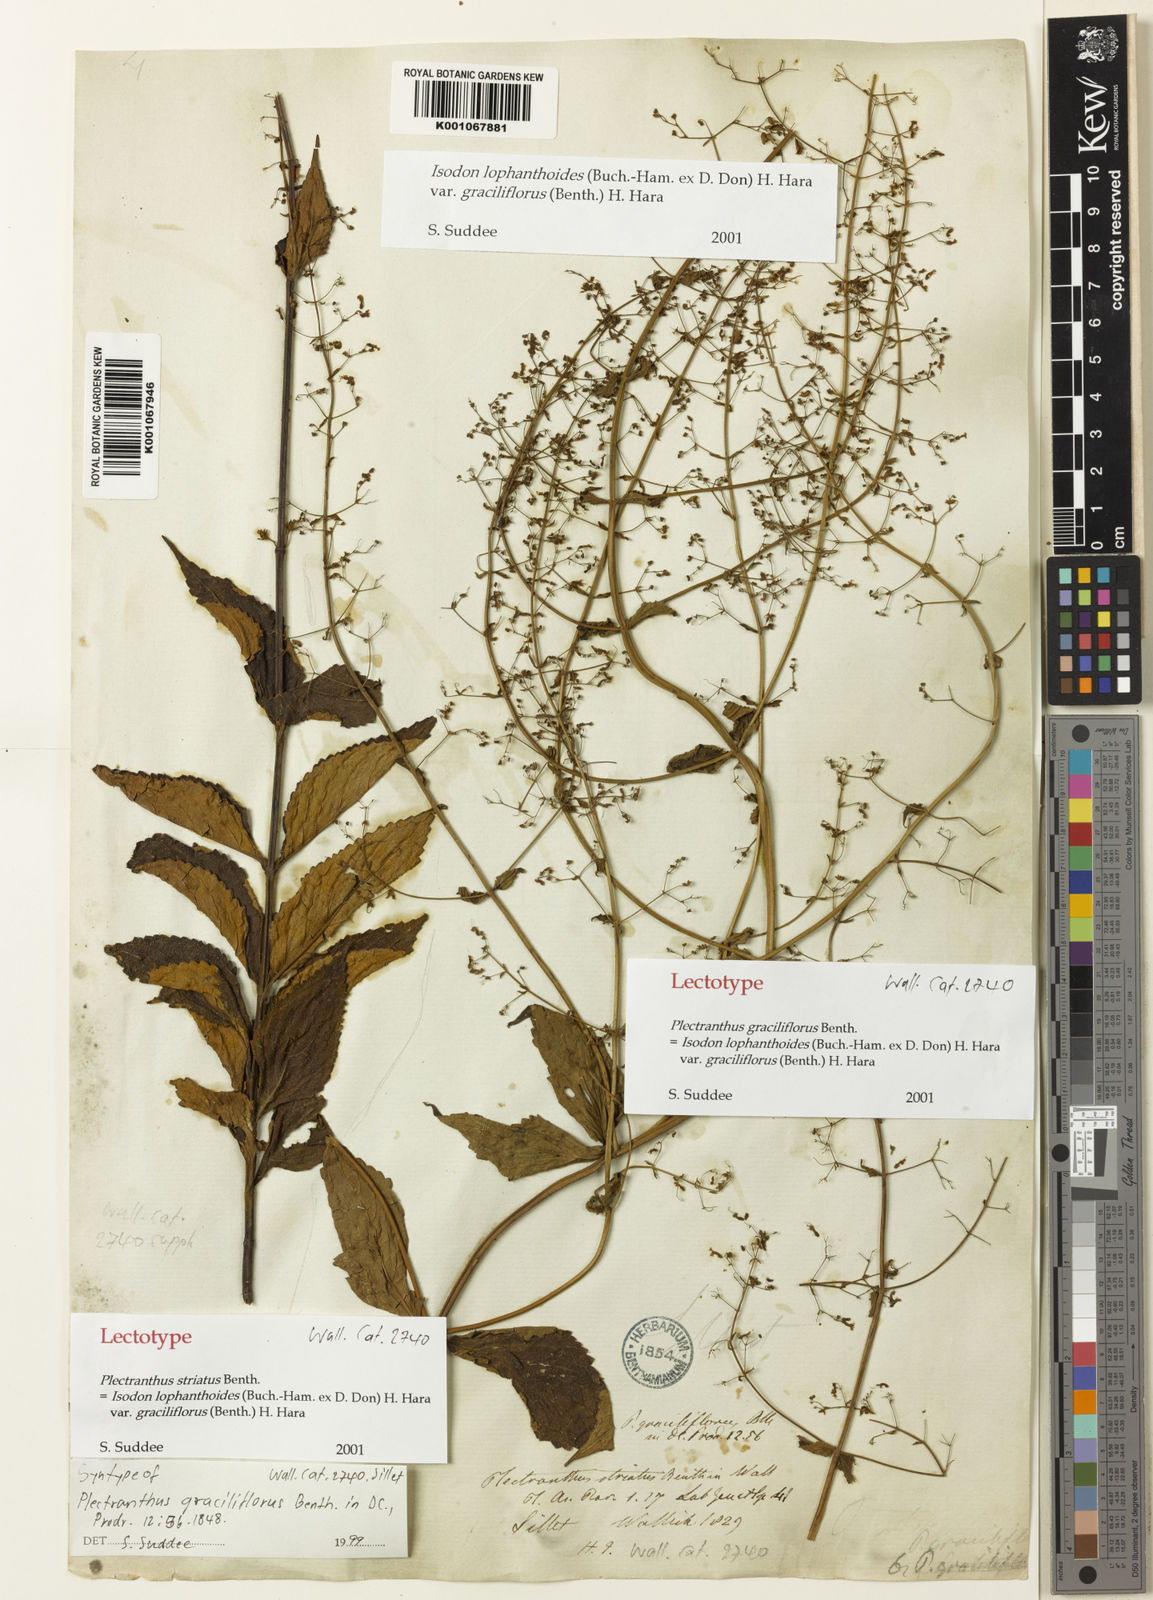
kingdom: Plantae
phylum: Tracheophyta
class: Magnoliopsida
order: Lamiales
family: Lamiaceae
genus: Isodon
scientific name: Isodon lophanthoides
